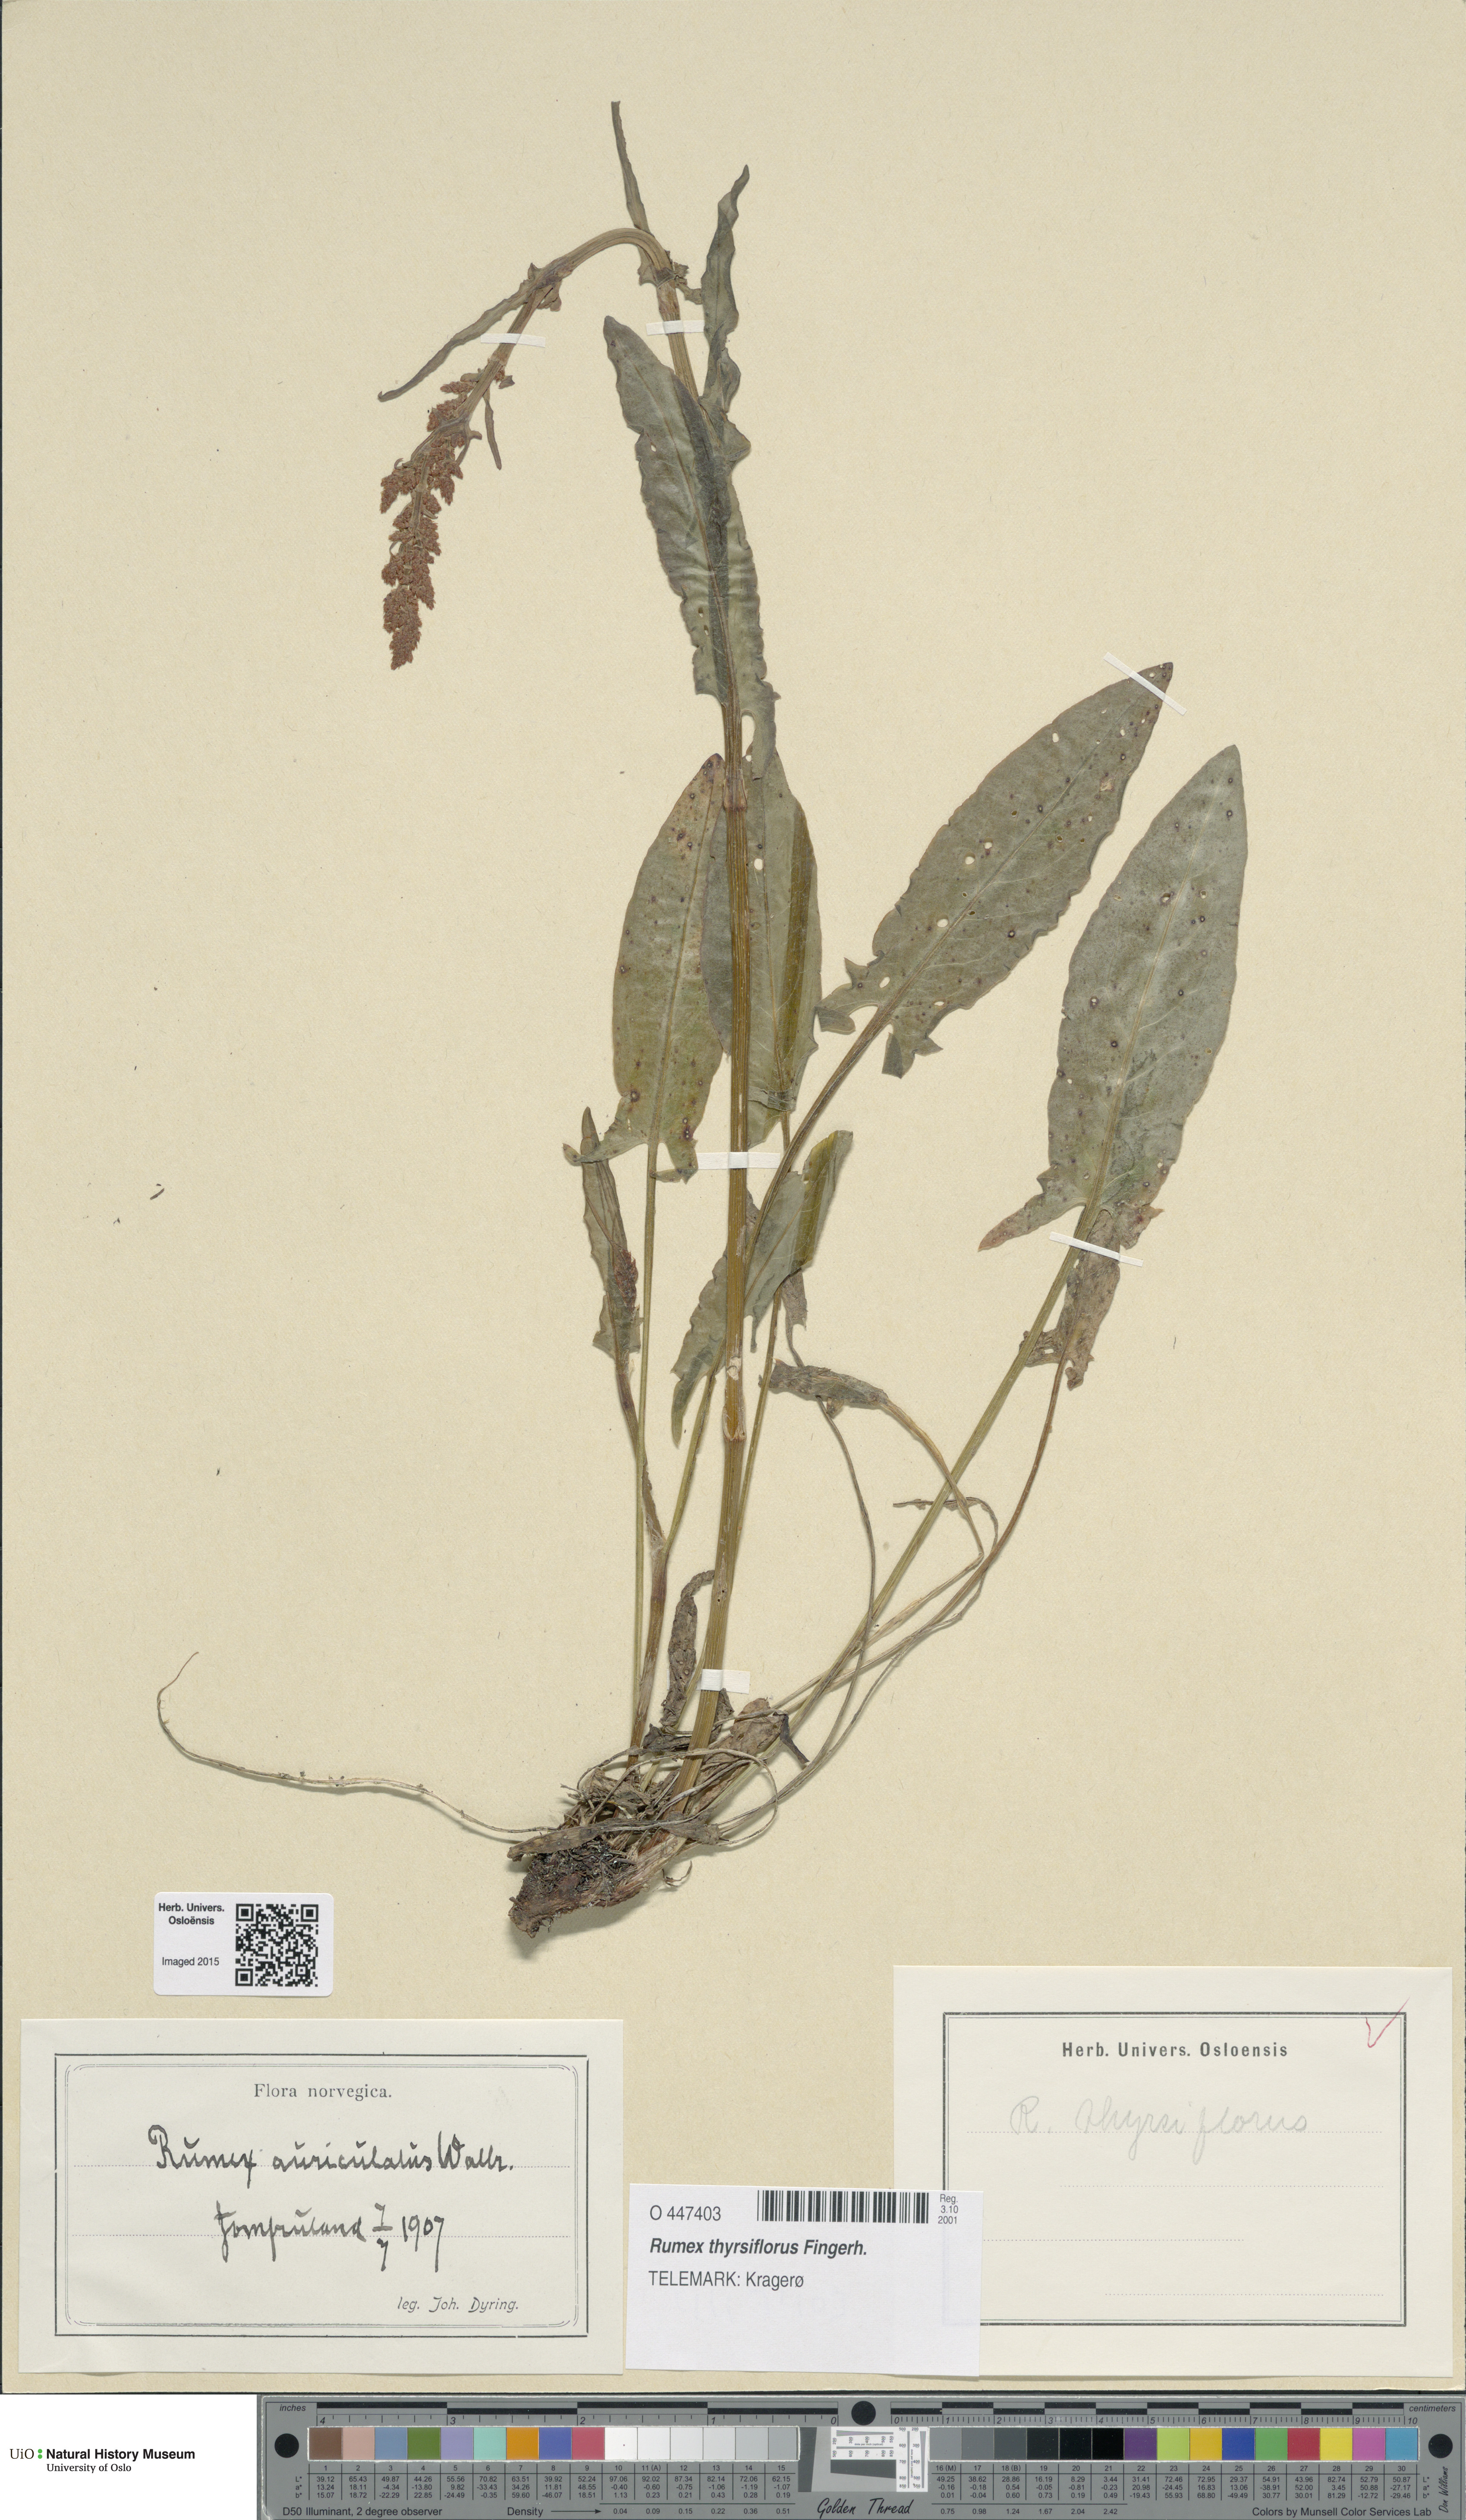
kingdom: Plantae
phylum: Tracheophyta
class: Magnoliopsida
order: Caryophyllales
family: Polygonaceae
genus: Rumex
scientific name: Rumex thyrsiflorus
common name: Garden sorrel
